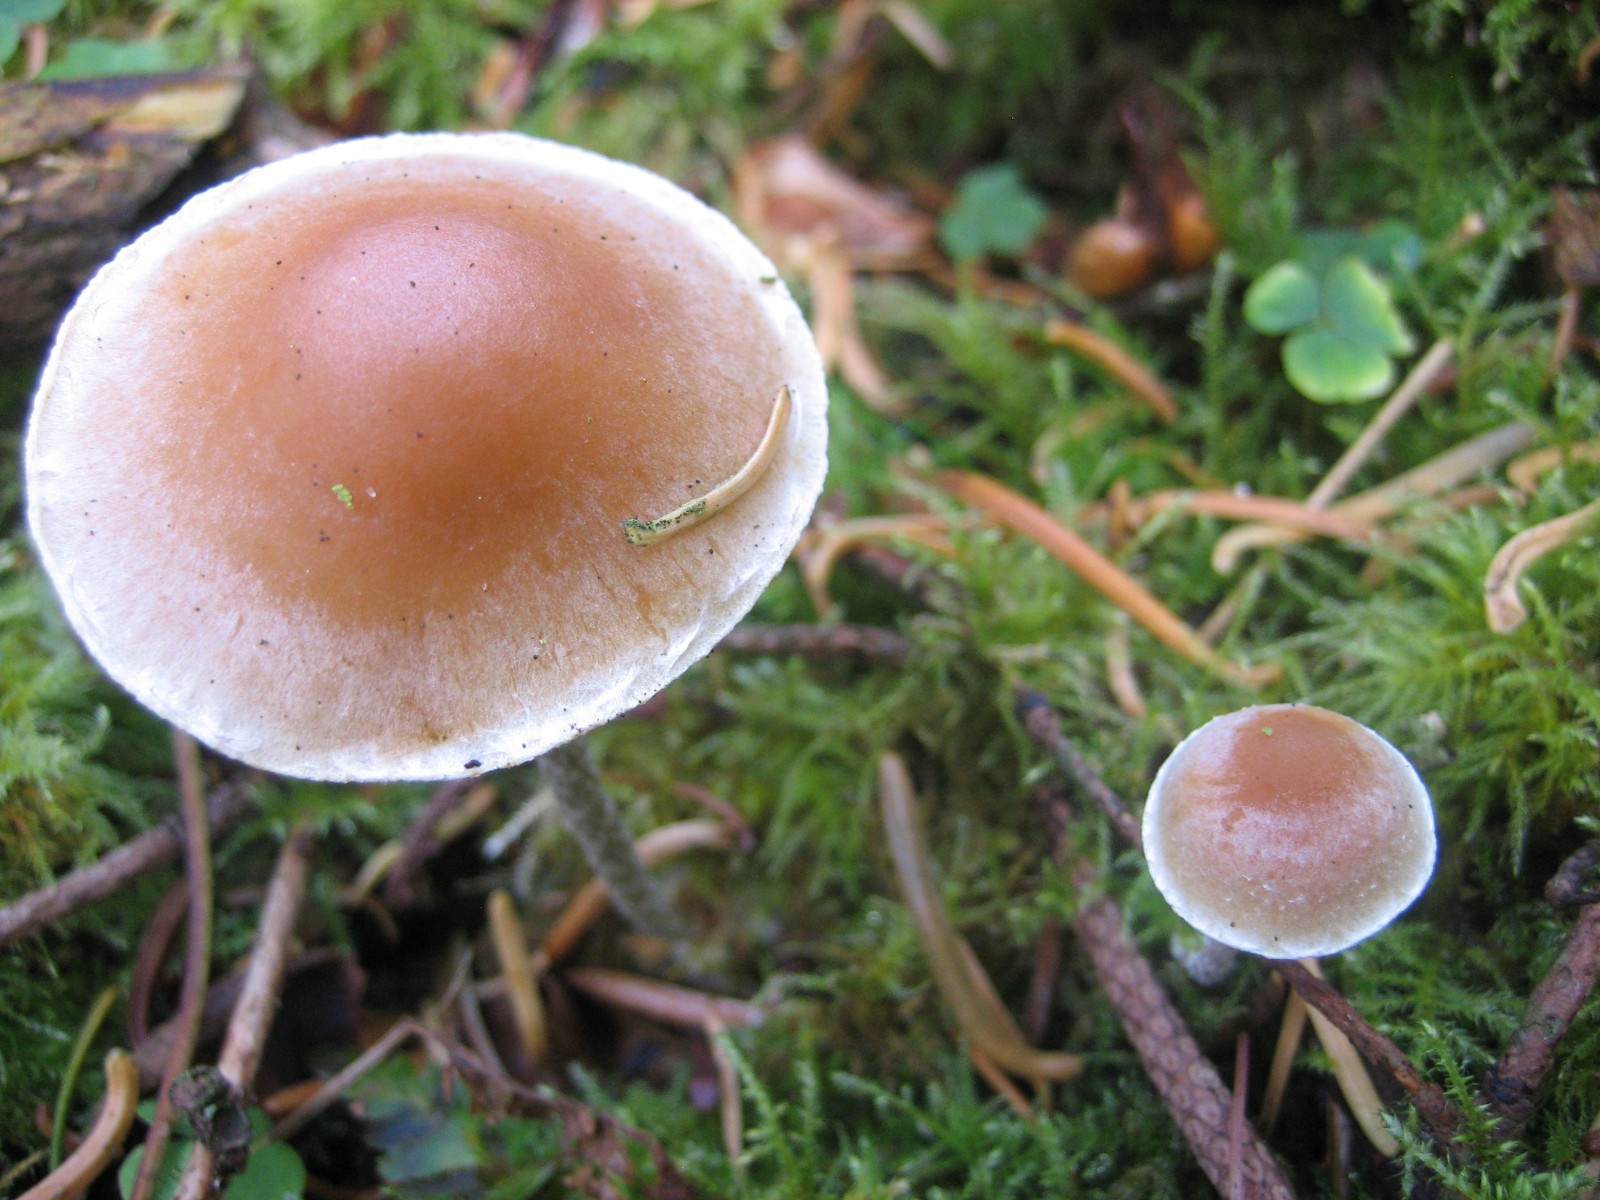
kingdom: Fungi
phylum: Basidiomycota
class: Agaricomycetes
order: Agaricales
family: Strophariaceae
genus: Hypholoma
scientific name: Hypholoma marginatum
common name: enlig svovlhat
